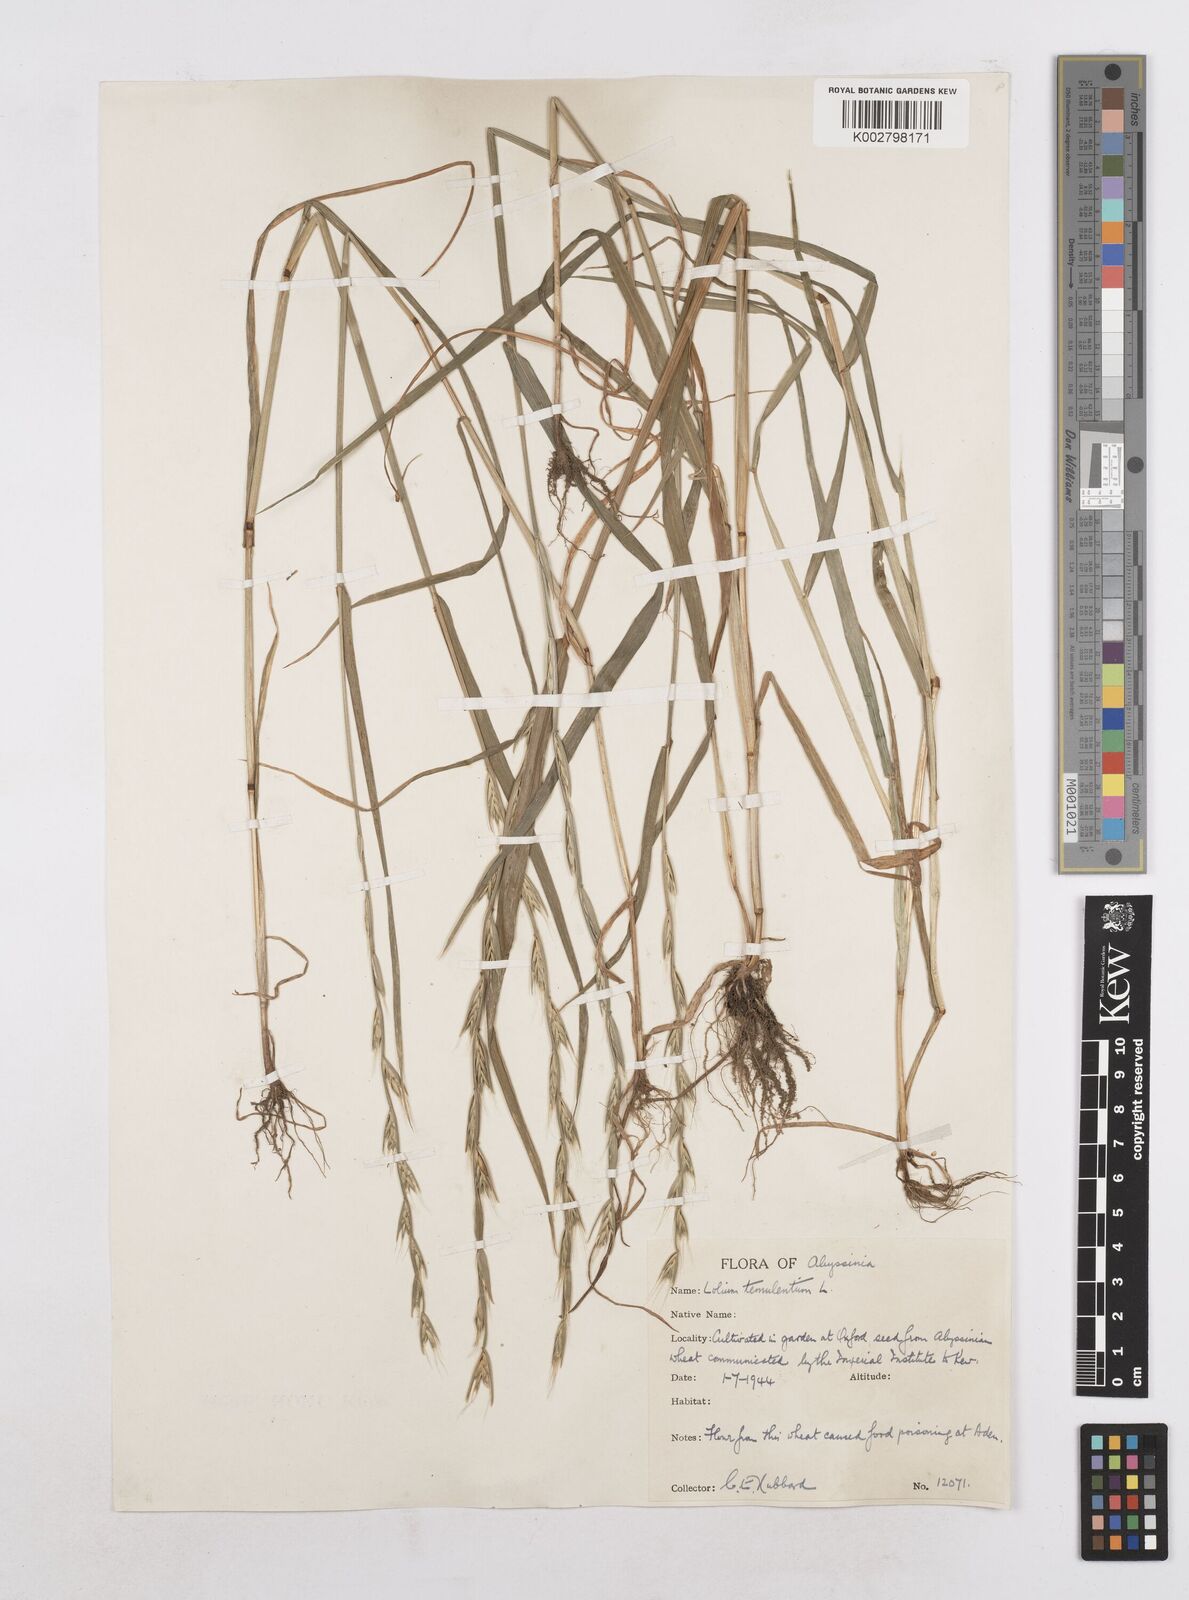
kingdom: Plantae
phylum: Tracheophyta
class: Liliopsida
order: Poales
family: Poaceae
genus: Lolium
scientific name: Lolium temulentum
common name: Darnel
